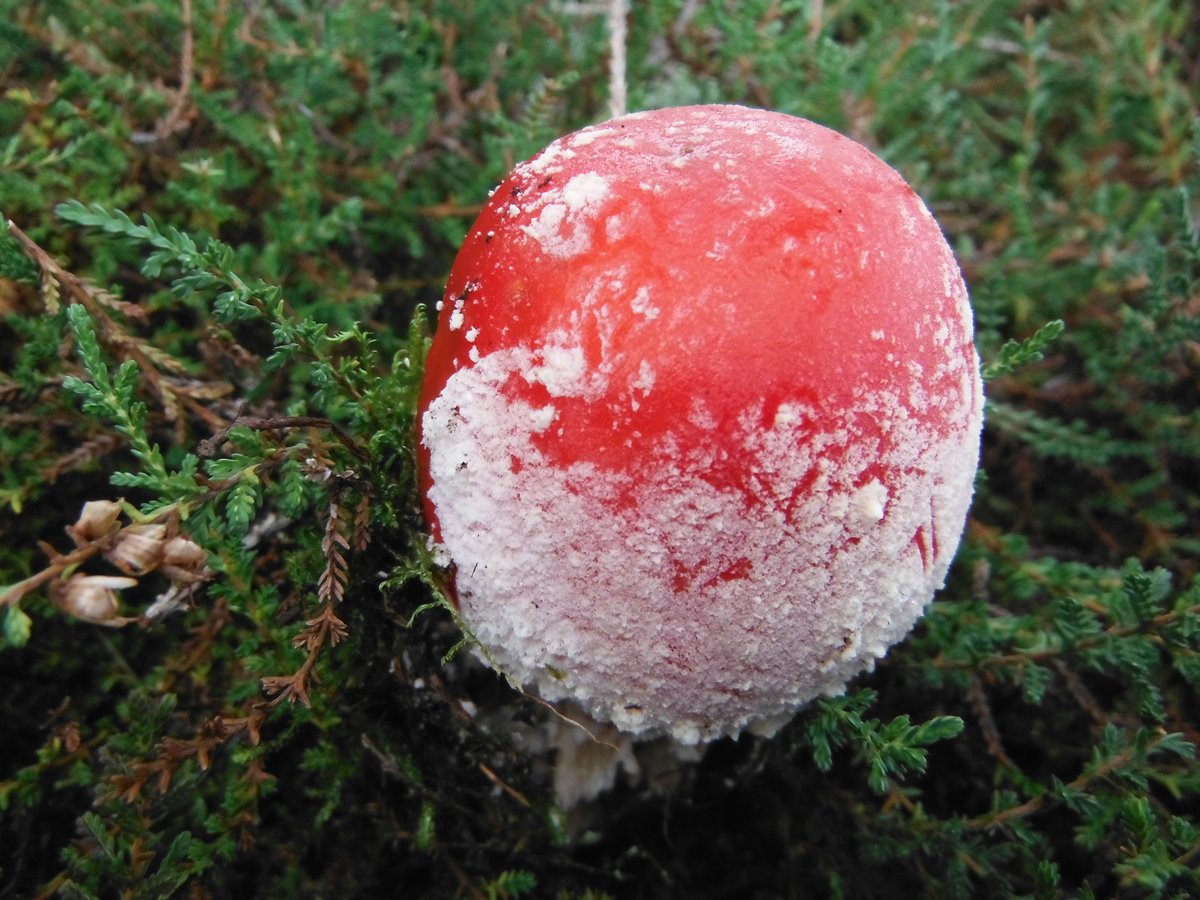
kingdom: Fungi
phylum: Basidiomycota
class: Agaricomycetes
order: Agaricales
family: Amanitaceae
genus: Amanita
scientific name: Amanita muscaria
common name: rød fluesvamp
